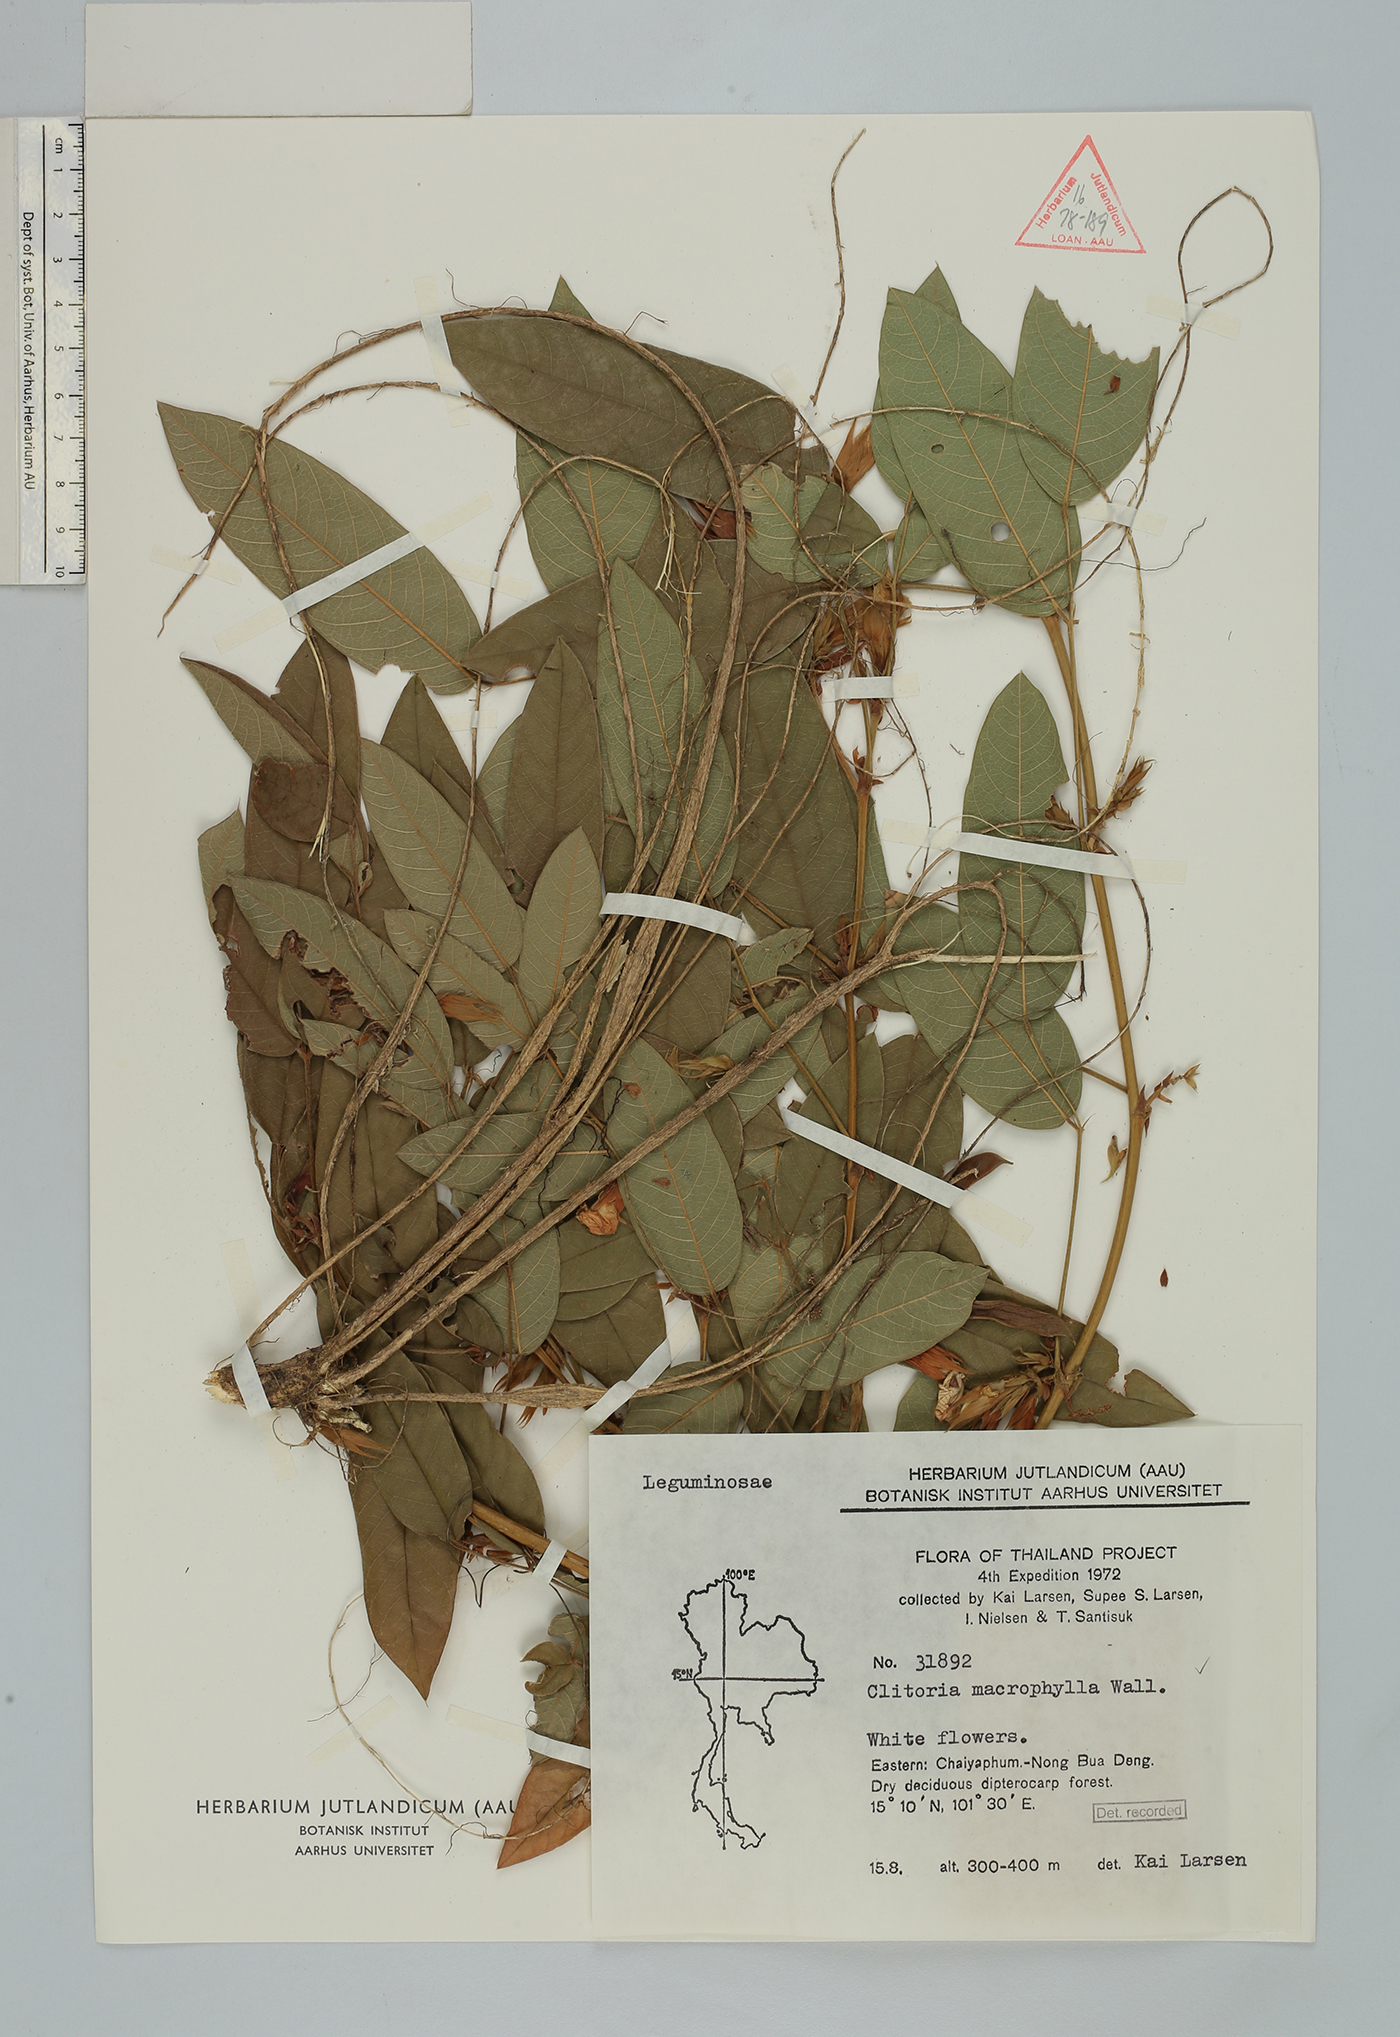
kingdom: Plantae
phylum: Tracheophyta
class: Magnoliopsida
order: Fabales
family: Fabaceae
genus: Clitoria
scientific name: Clitoria macrophylla
